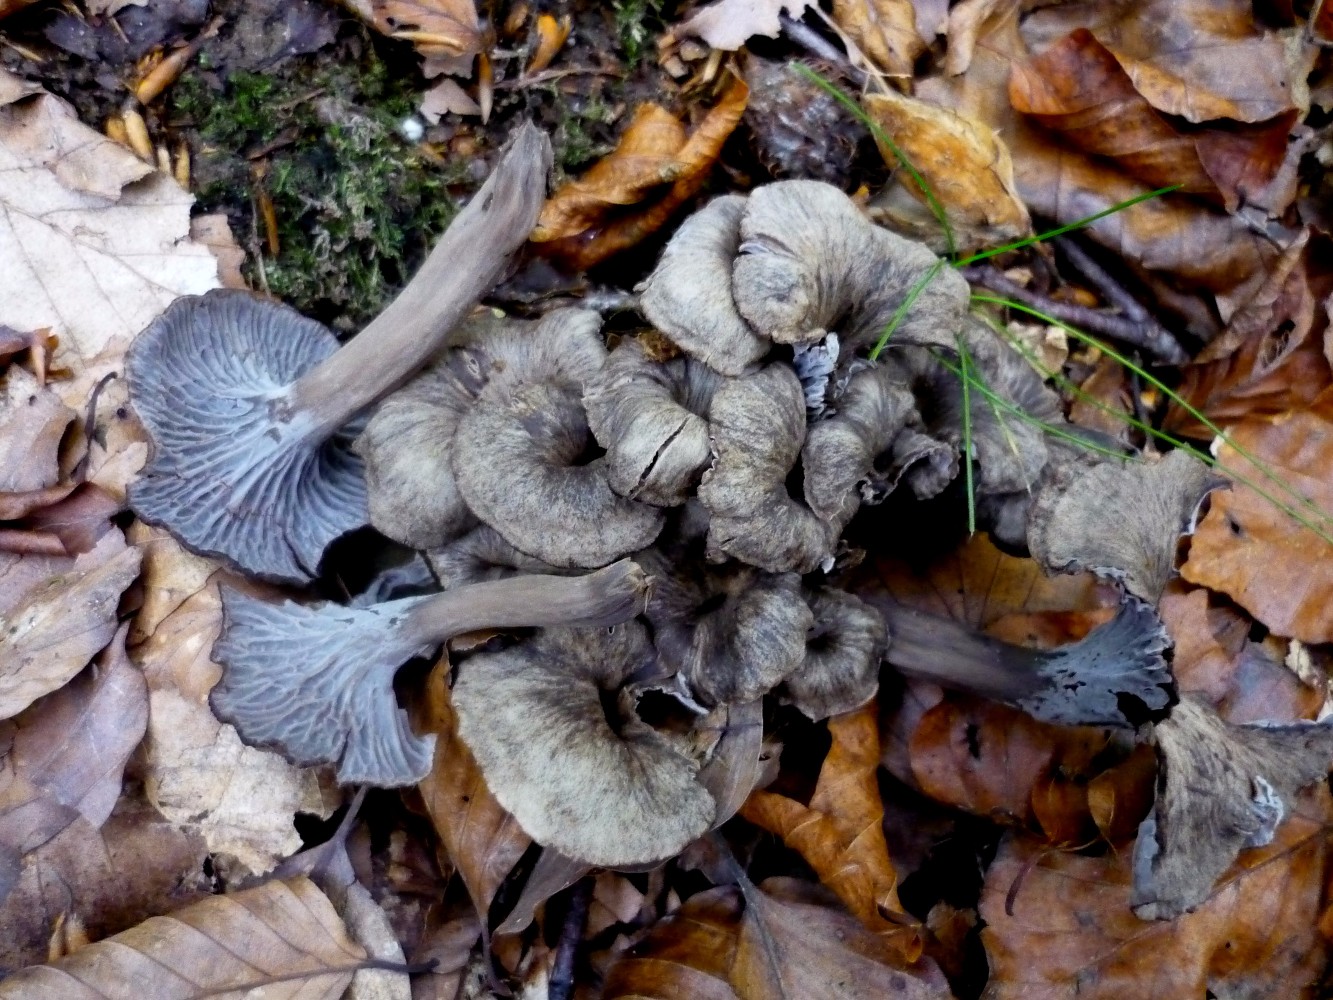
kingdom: Fungi
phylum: Basidiomycota
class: Agaricomycetes
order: Cantharellales
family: Hydnaceae
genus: Cantharellus
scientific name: Cantharellus cinereus
